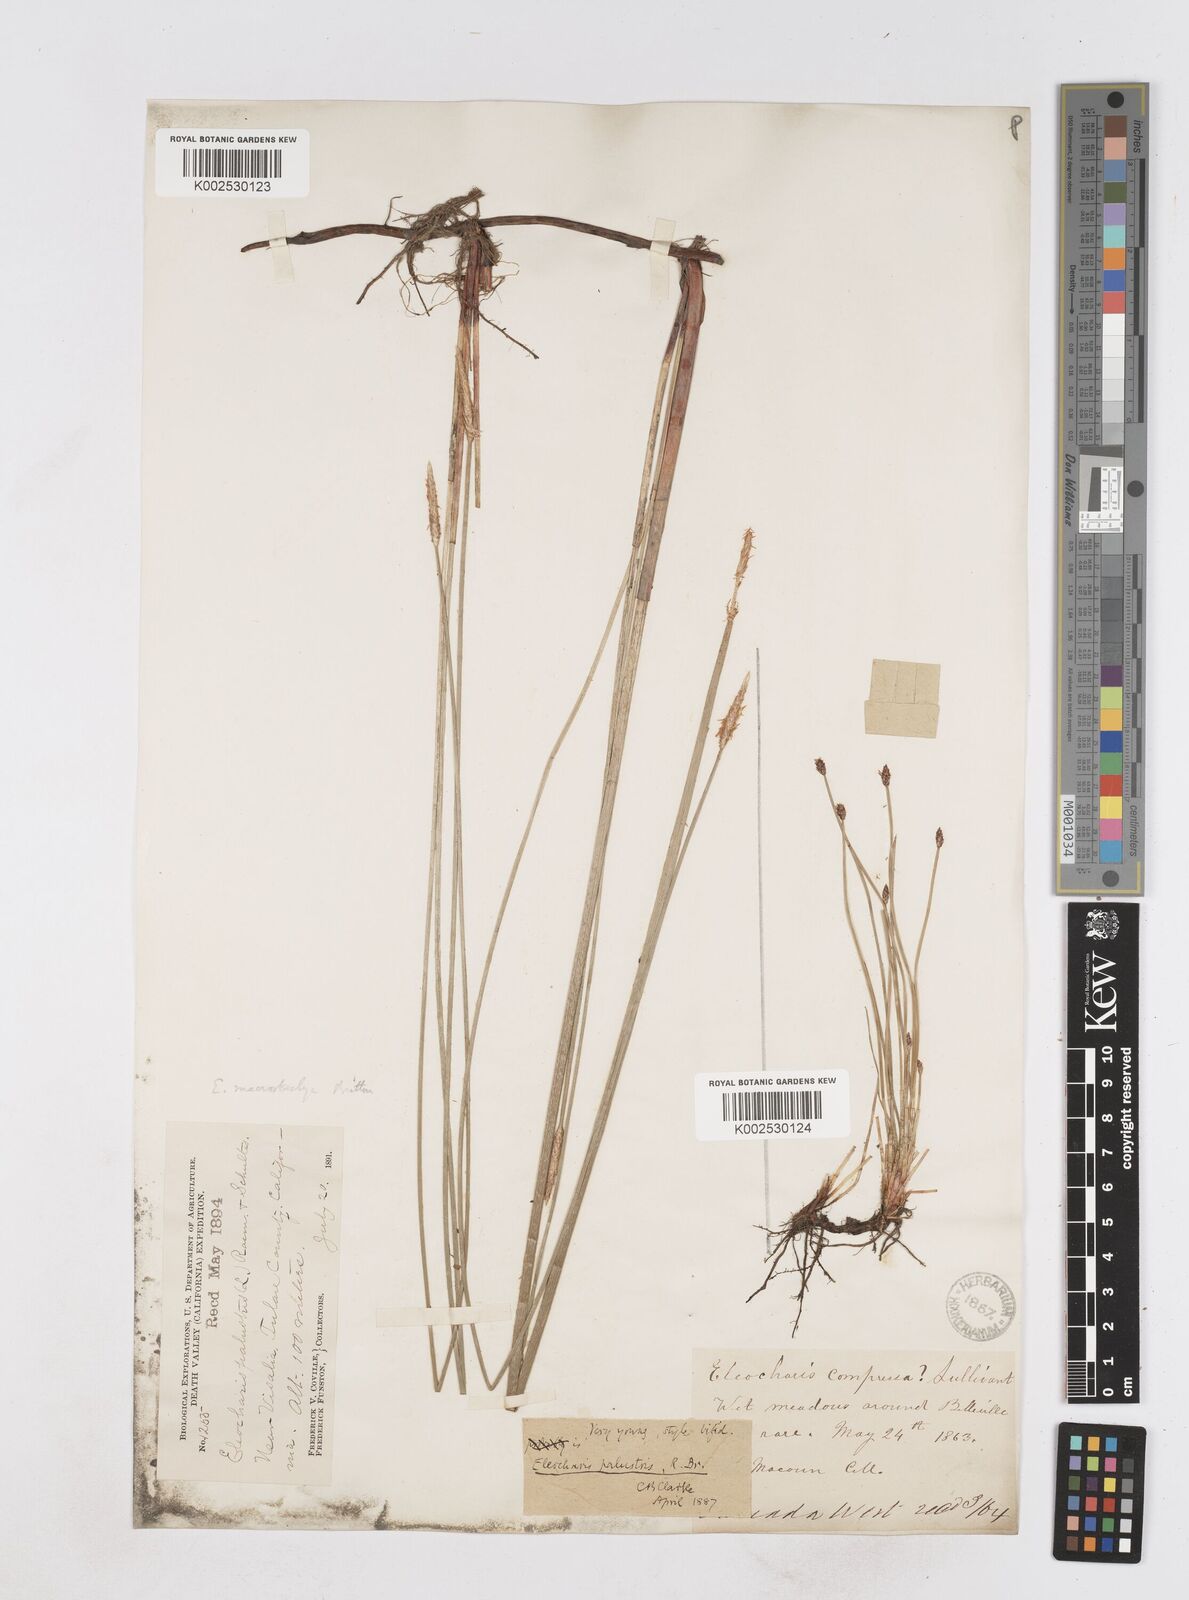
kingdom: Plantae
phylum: Tracheophyta
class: Liliopsida
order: Poales
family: Cyperaceae
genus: Eleocharis
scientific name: Eleocharis macrostachya
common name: Pale spikerush
